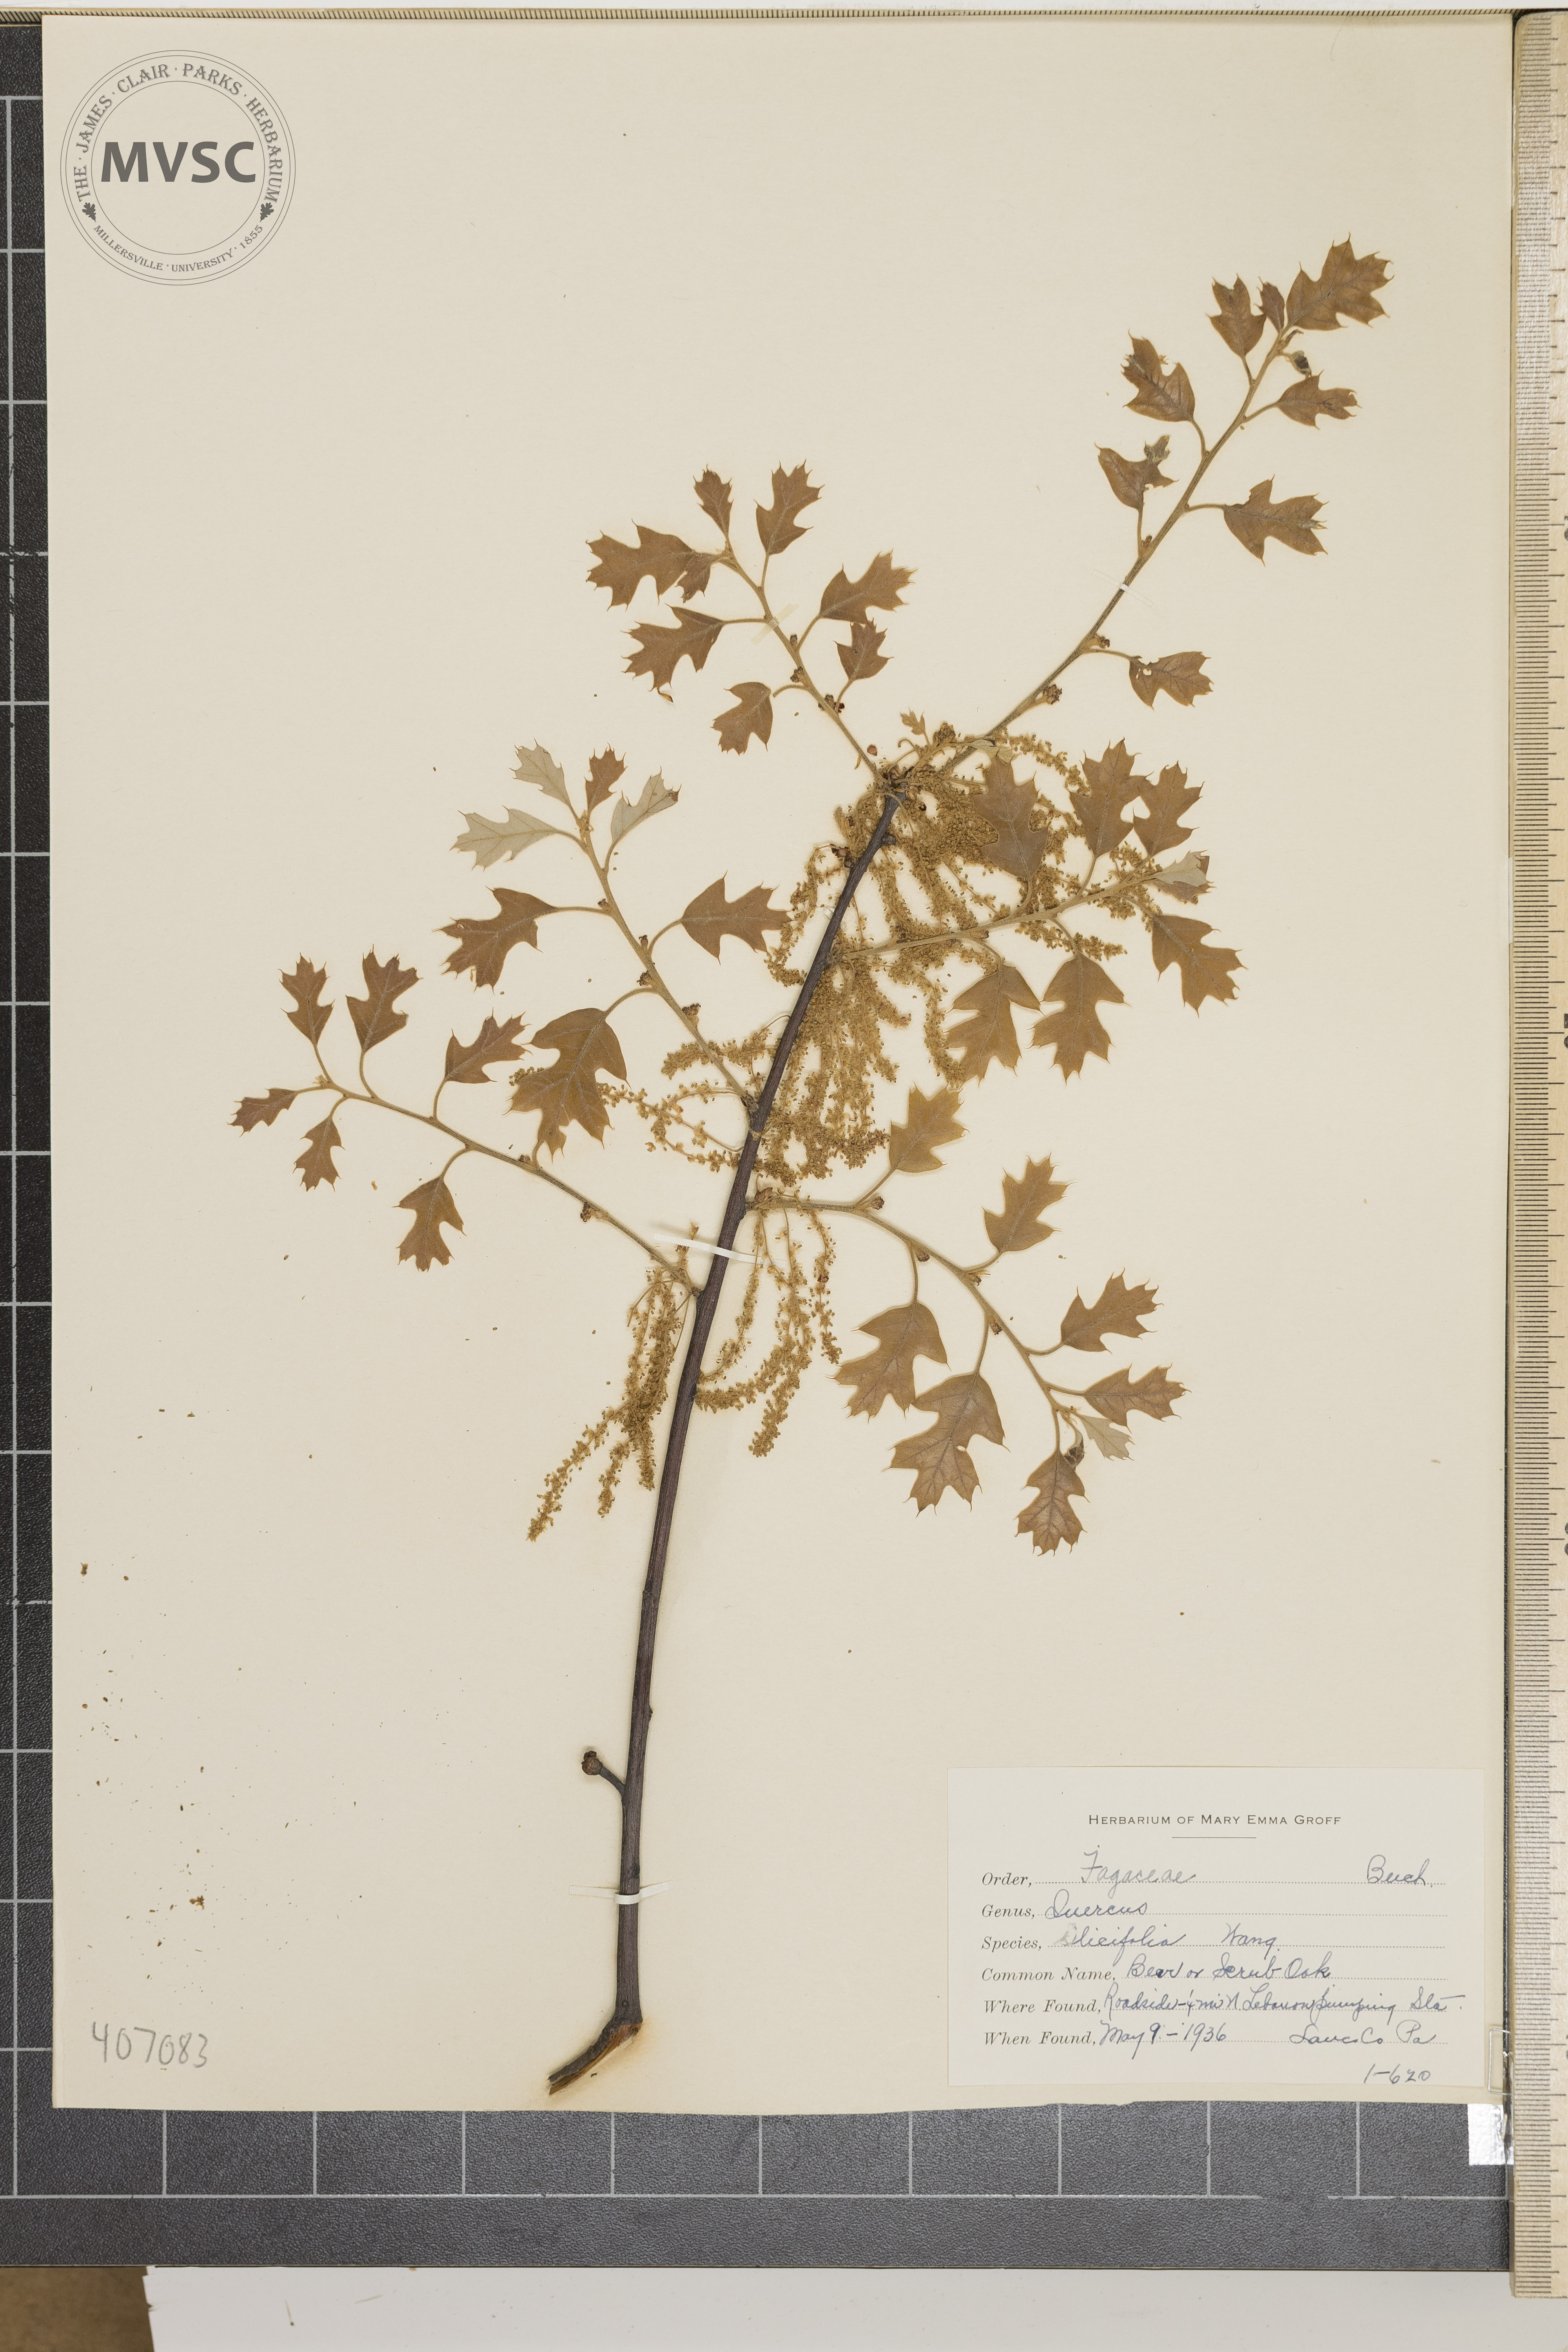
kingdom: Plantae
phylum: Tracheophyta
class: Magnoliopsida
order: Fagales
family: Fagaceae
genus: Quercus
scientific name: Quercus ilicifolia
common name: Bear oak
